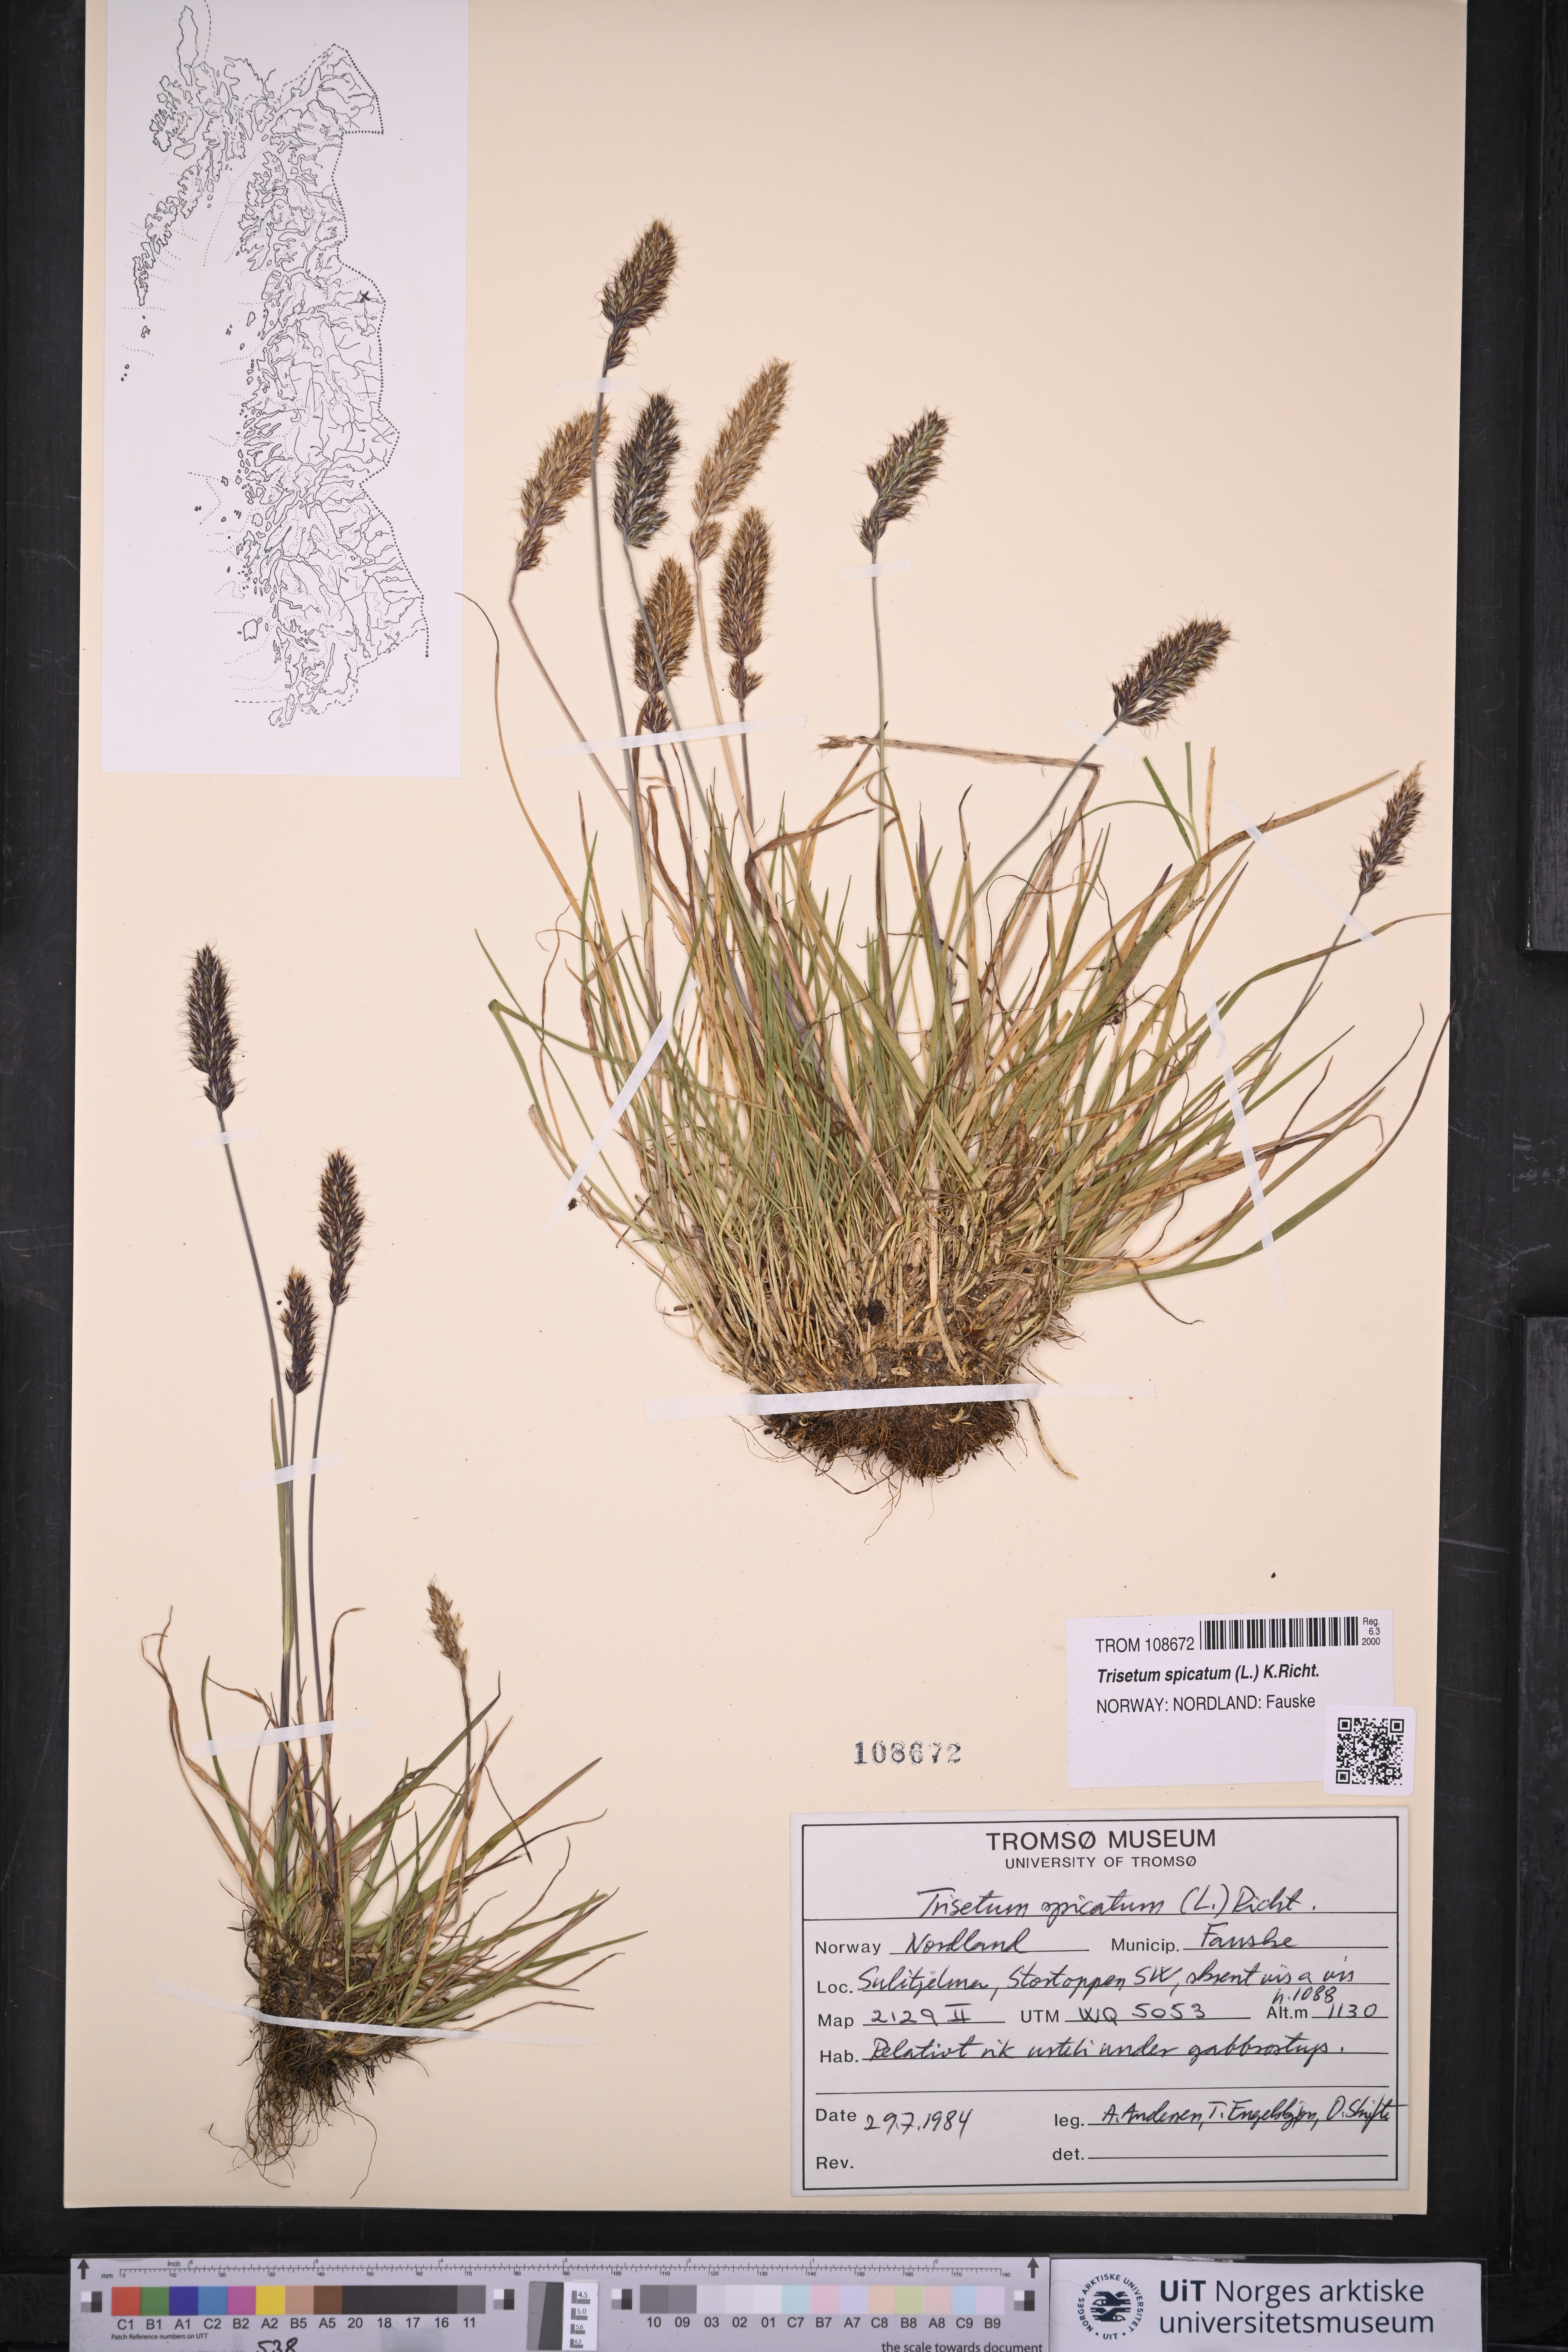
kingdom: Plantae
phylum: Tracheophyta
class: Liliopsida
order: Poales
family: Poaceae
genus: Koeleria
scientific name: Koeleria spicata
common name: Mountain trisetum
